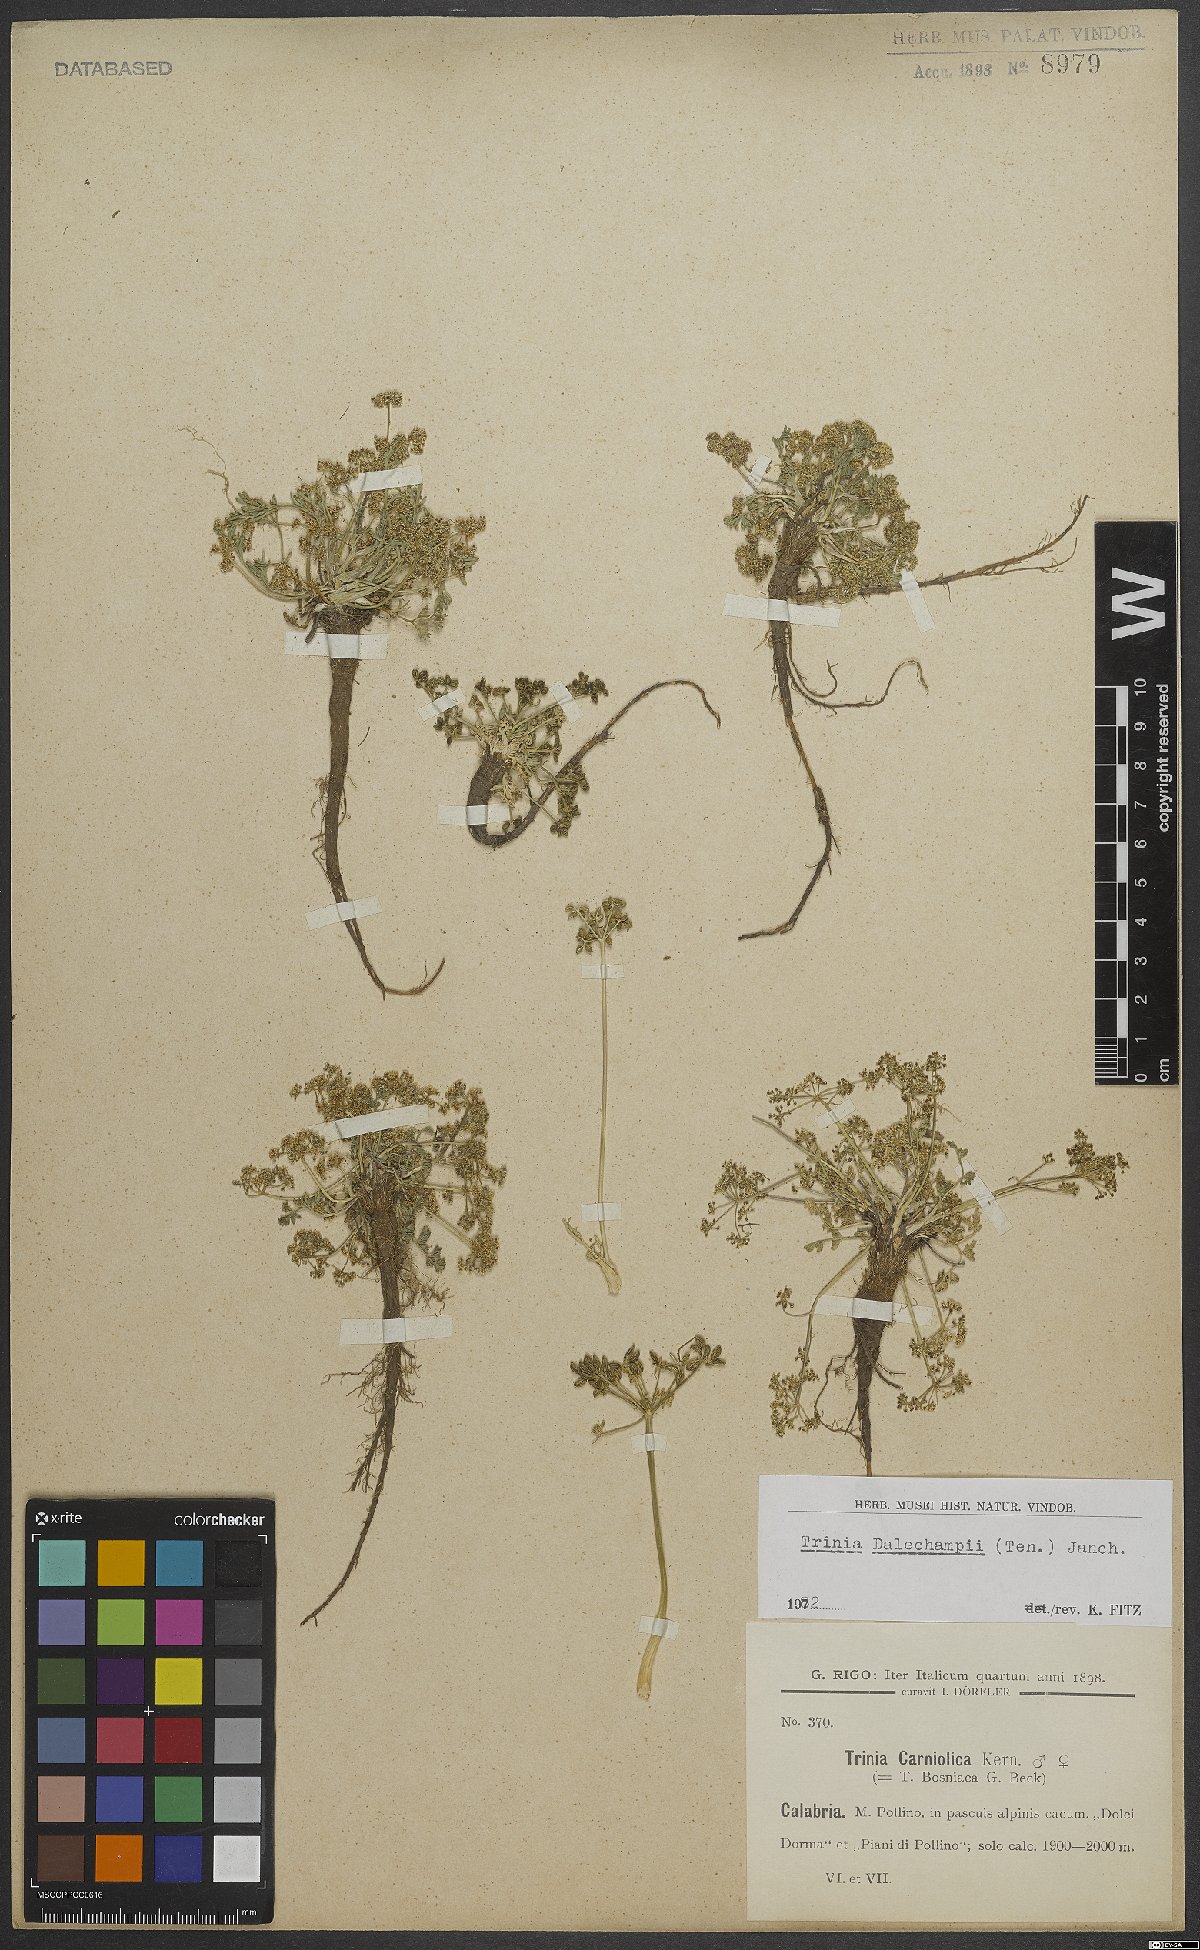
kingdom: Plantae
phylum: Tracheophyta
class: Magnoliopsida
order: Apiales
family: Apiaceae
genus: Trinia
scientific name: Trinia dalechampii
